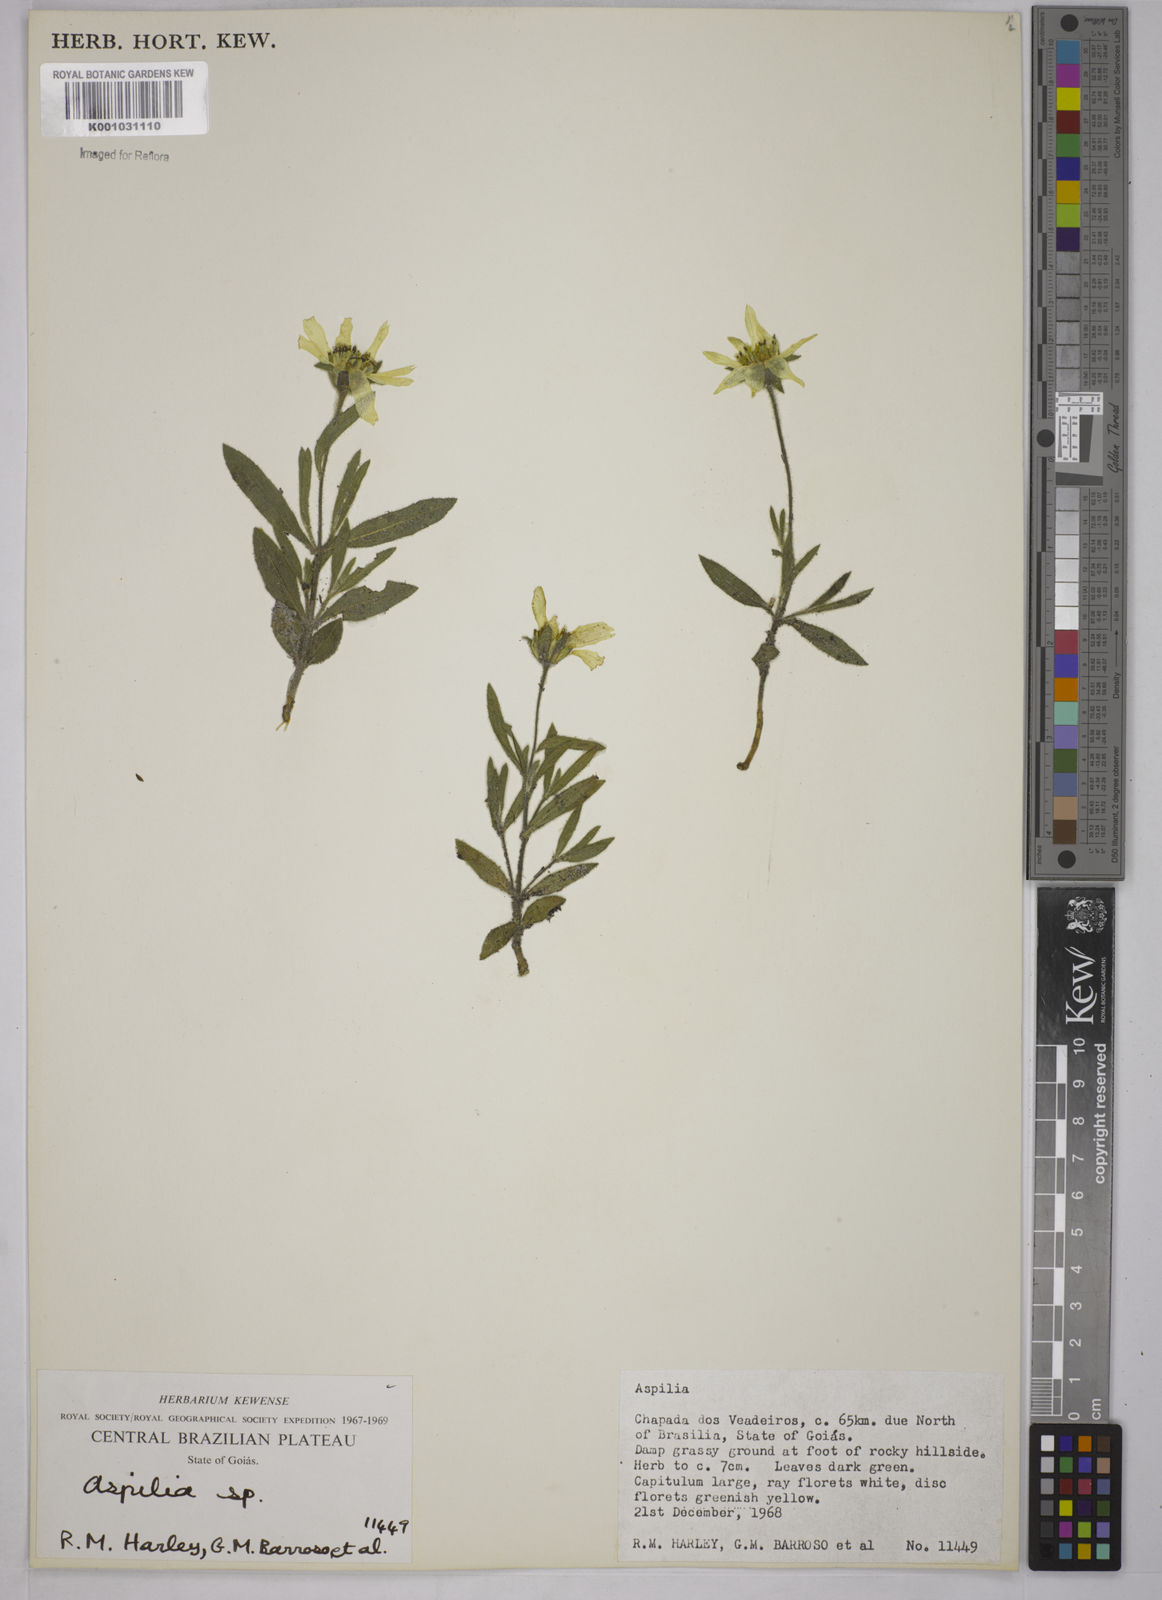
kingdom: Plantae
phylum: Tracheophyta
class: Magnoliopsida
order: Asterales
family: Asteraceae
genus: Aspilia
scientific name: Aspilia
